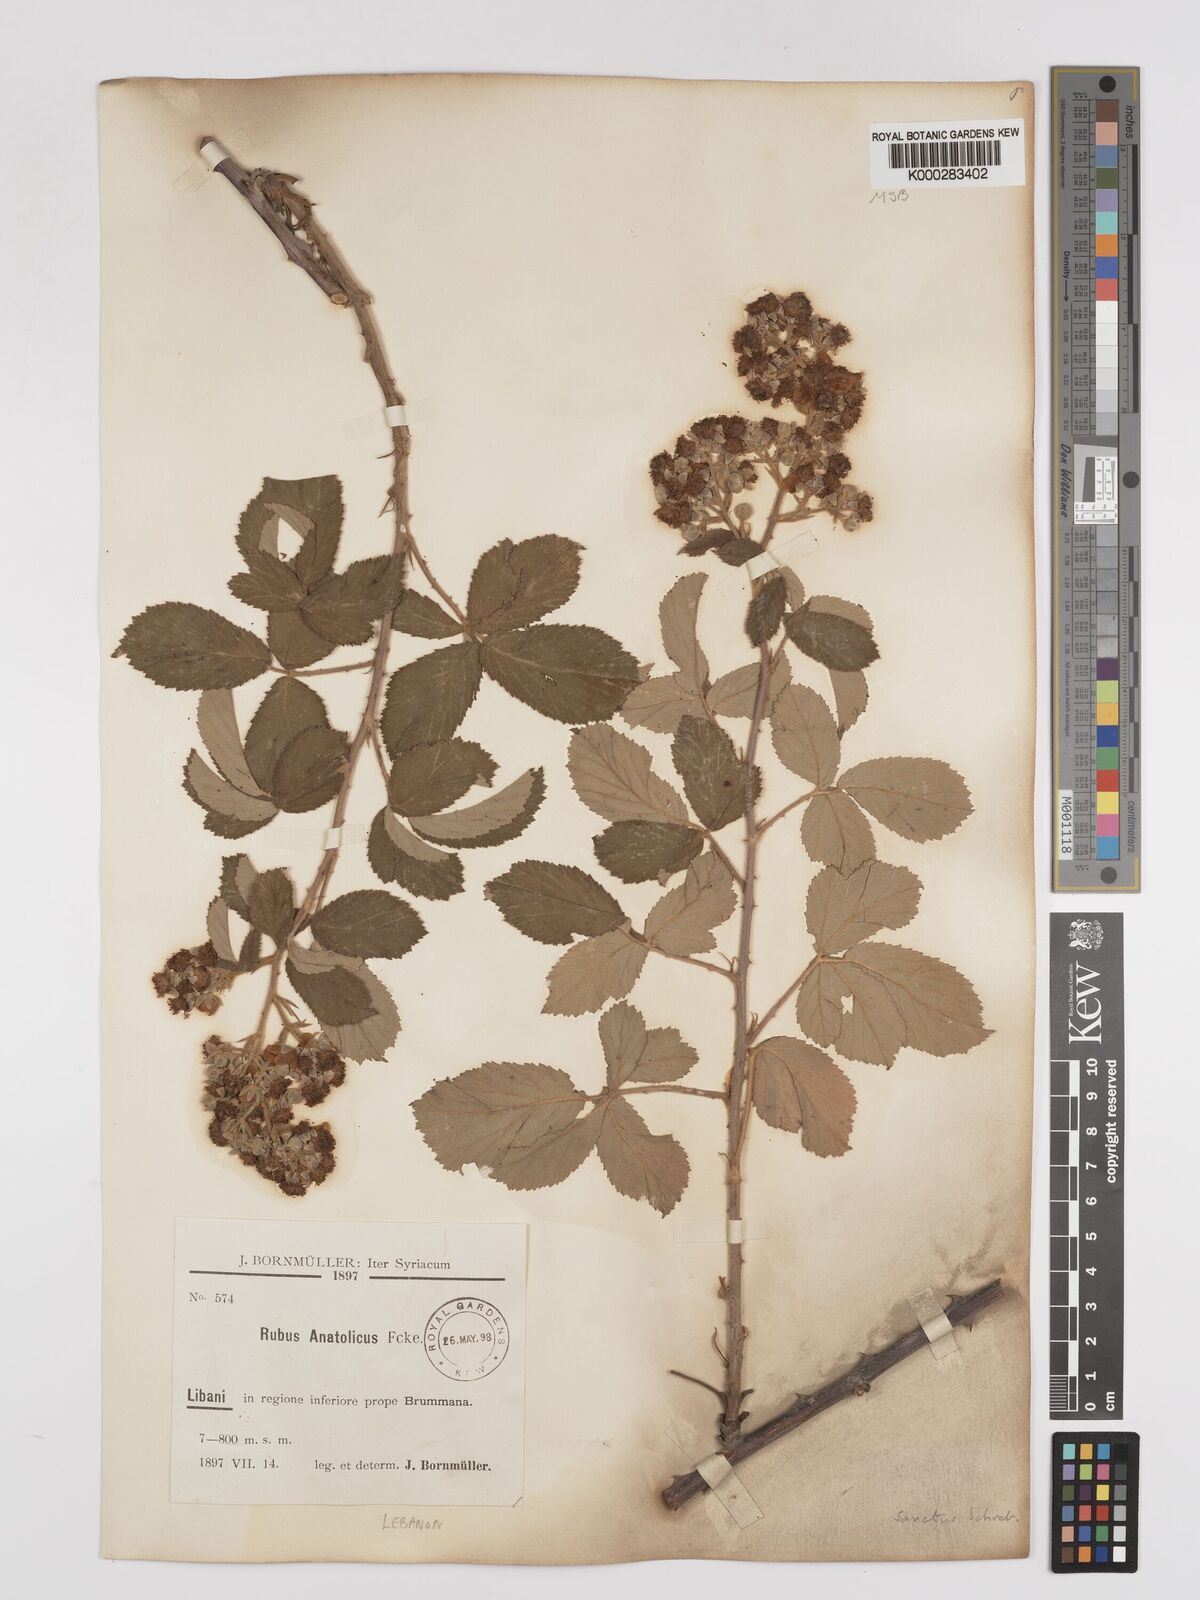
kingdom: Plantae
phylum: Tracheophyta
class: Magnoliopsida
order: Rosales
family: Rosaceae
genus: Rubus
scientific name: Rubus sanctus
